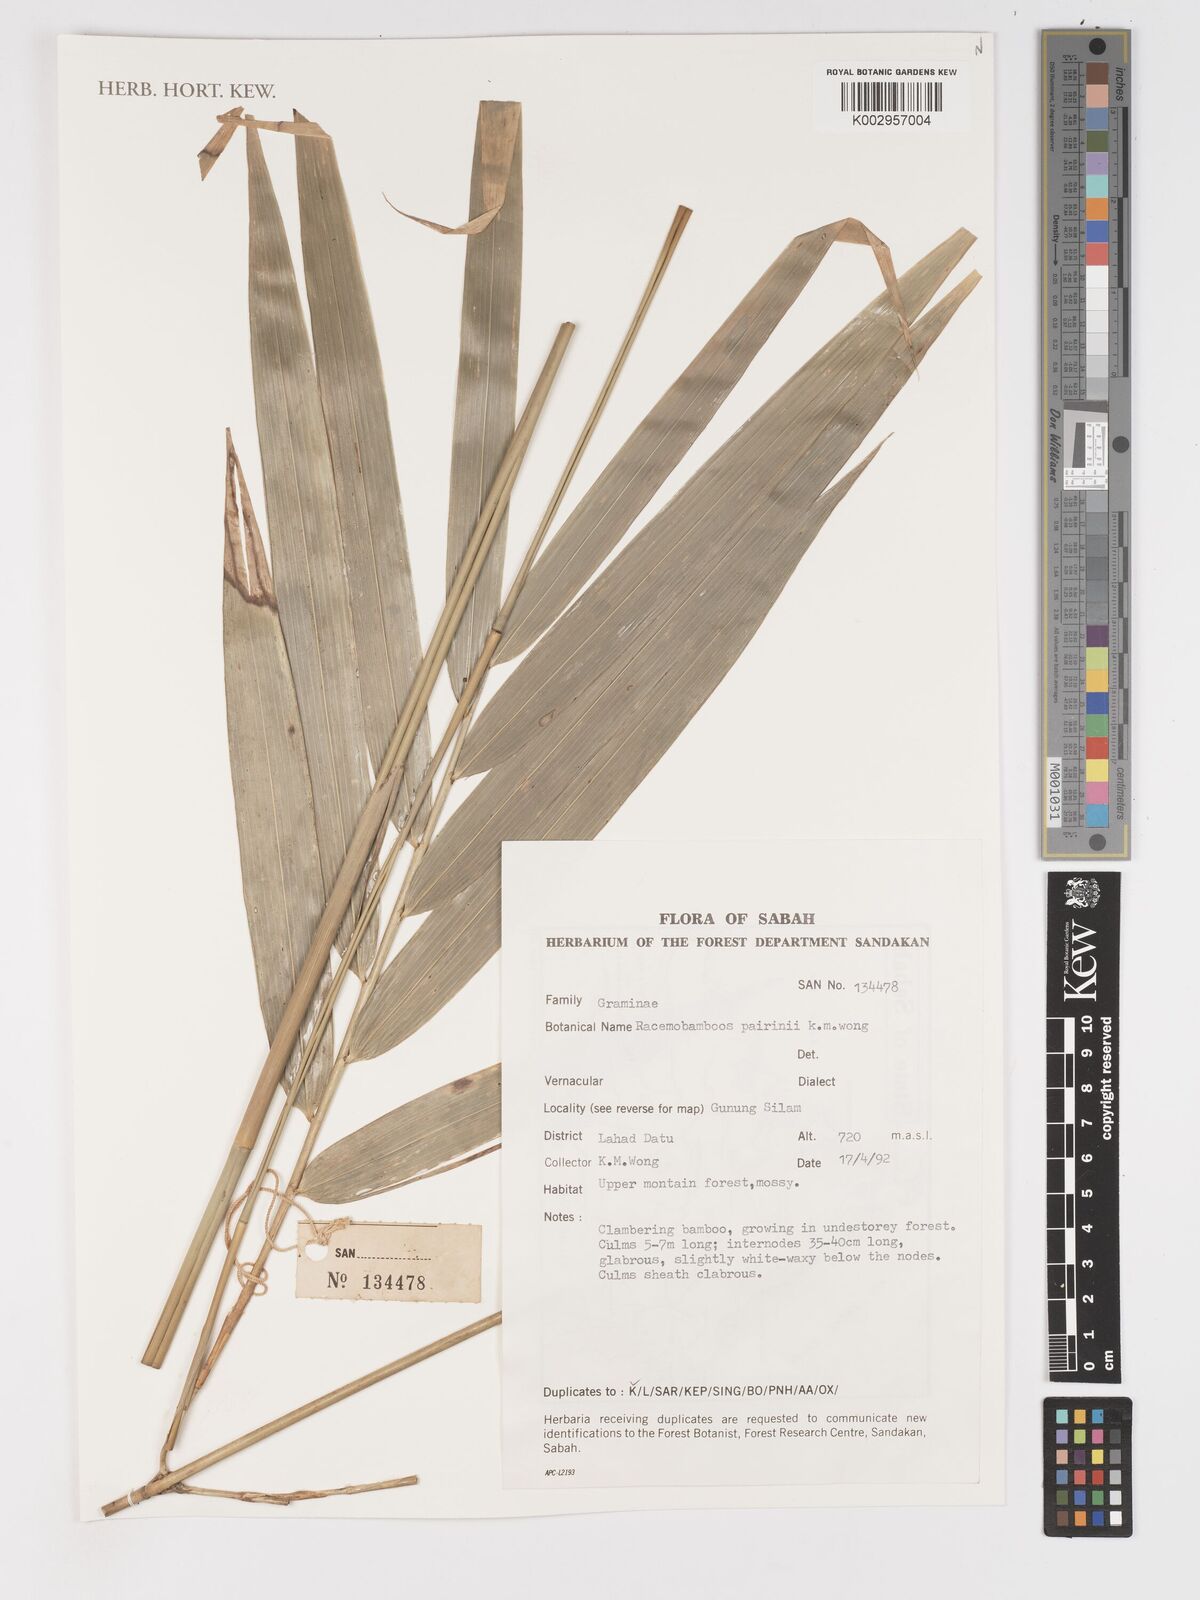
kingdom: Plantae
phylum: Tracheophyta
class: Liliopsida
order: Poales
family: Poaceae
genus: Racemobambos
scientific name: Racemobambos pairinii
